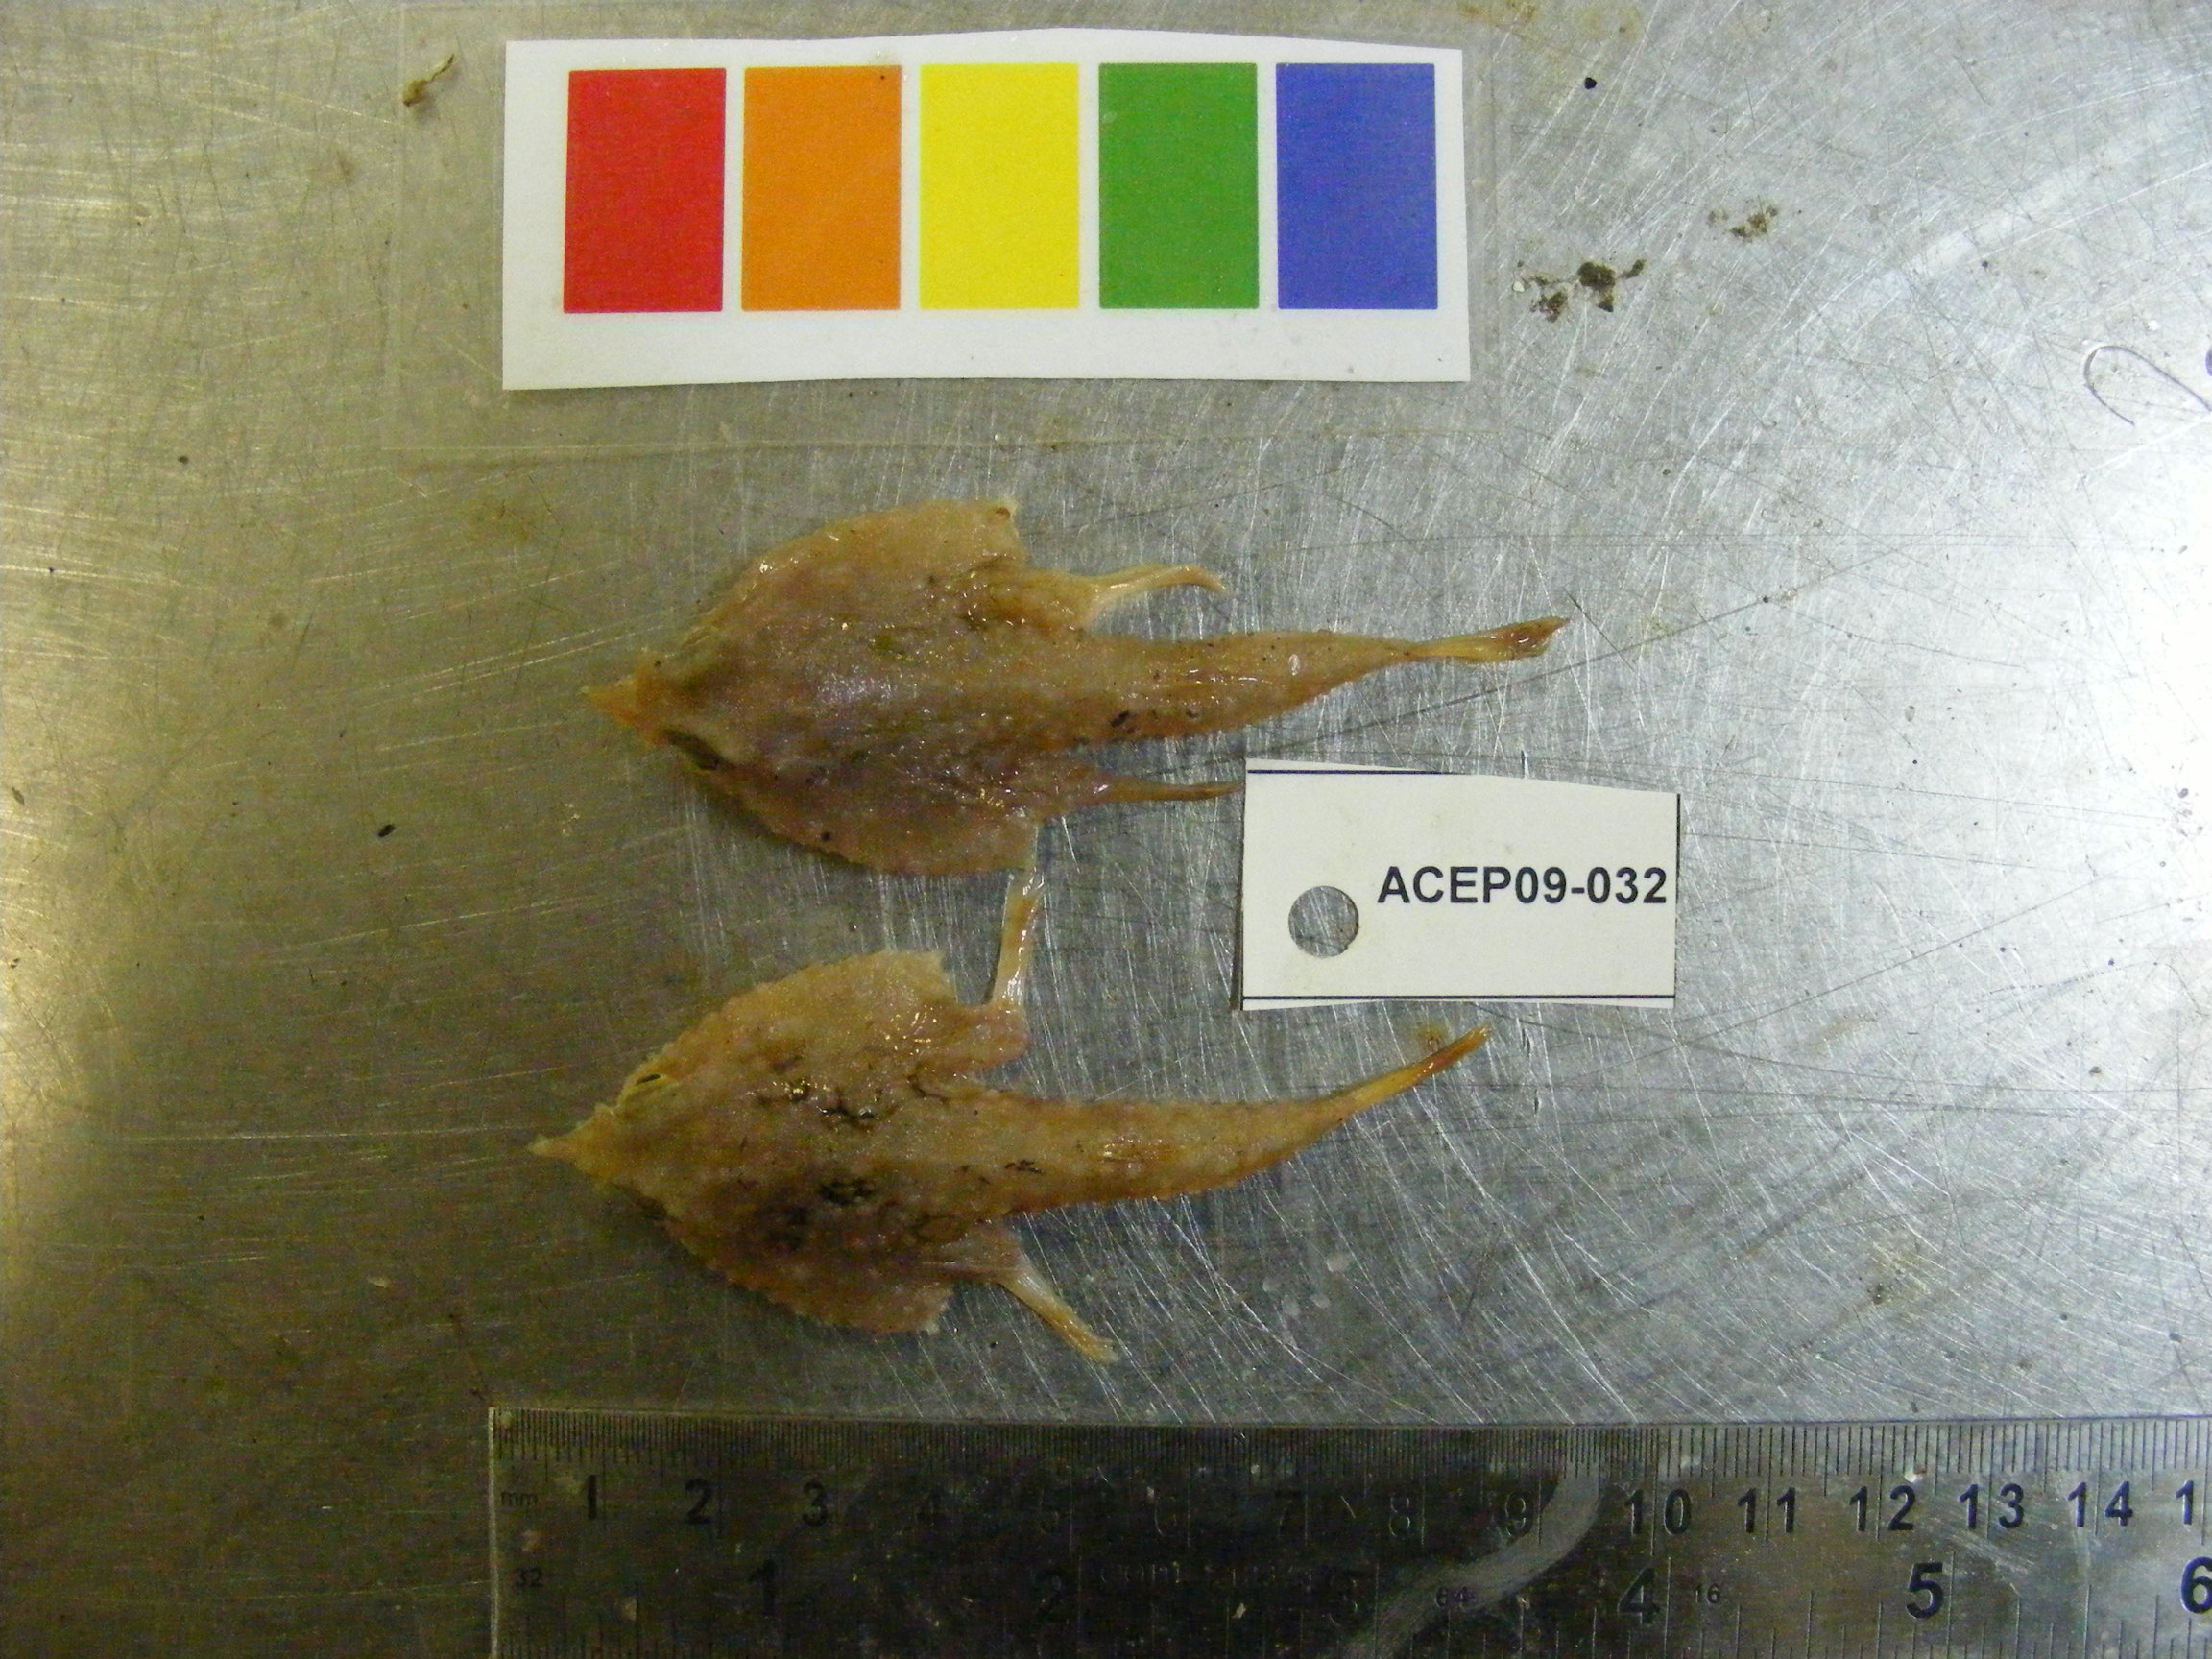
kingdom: Animalia
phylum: Chordata
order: Lophiiformes
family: Ogcocephalidae
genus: Malthopsis
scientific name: Malthopsis austrafricana
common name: South african triangular batfish
